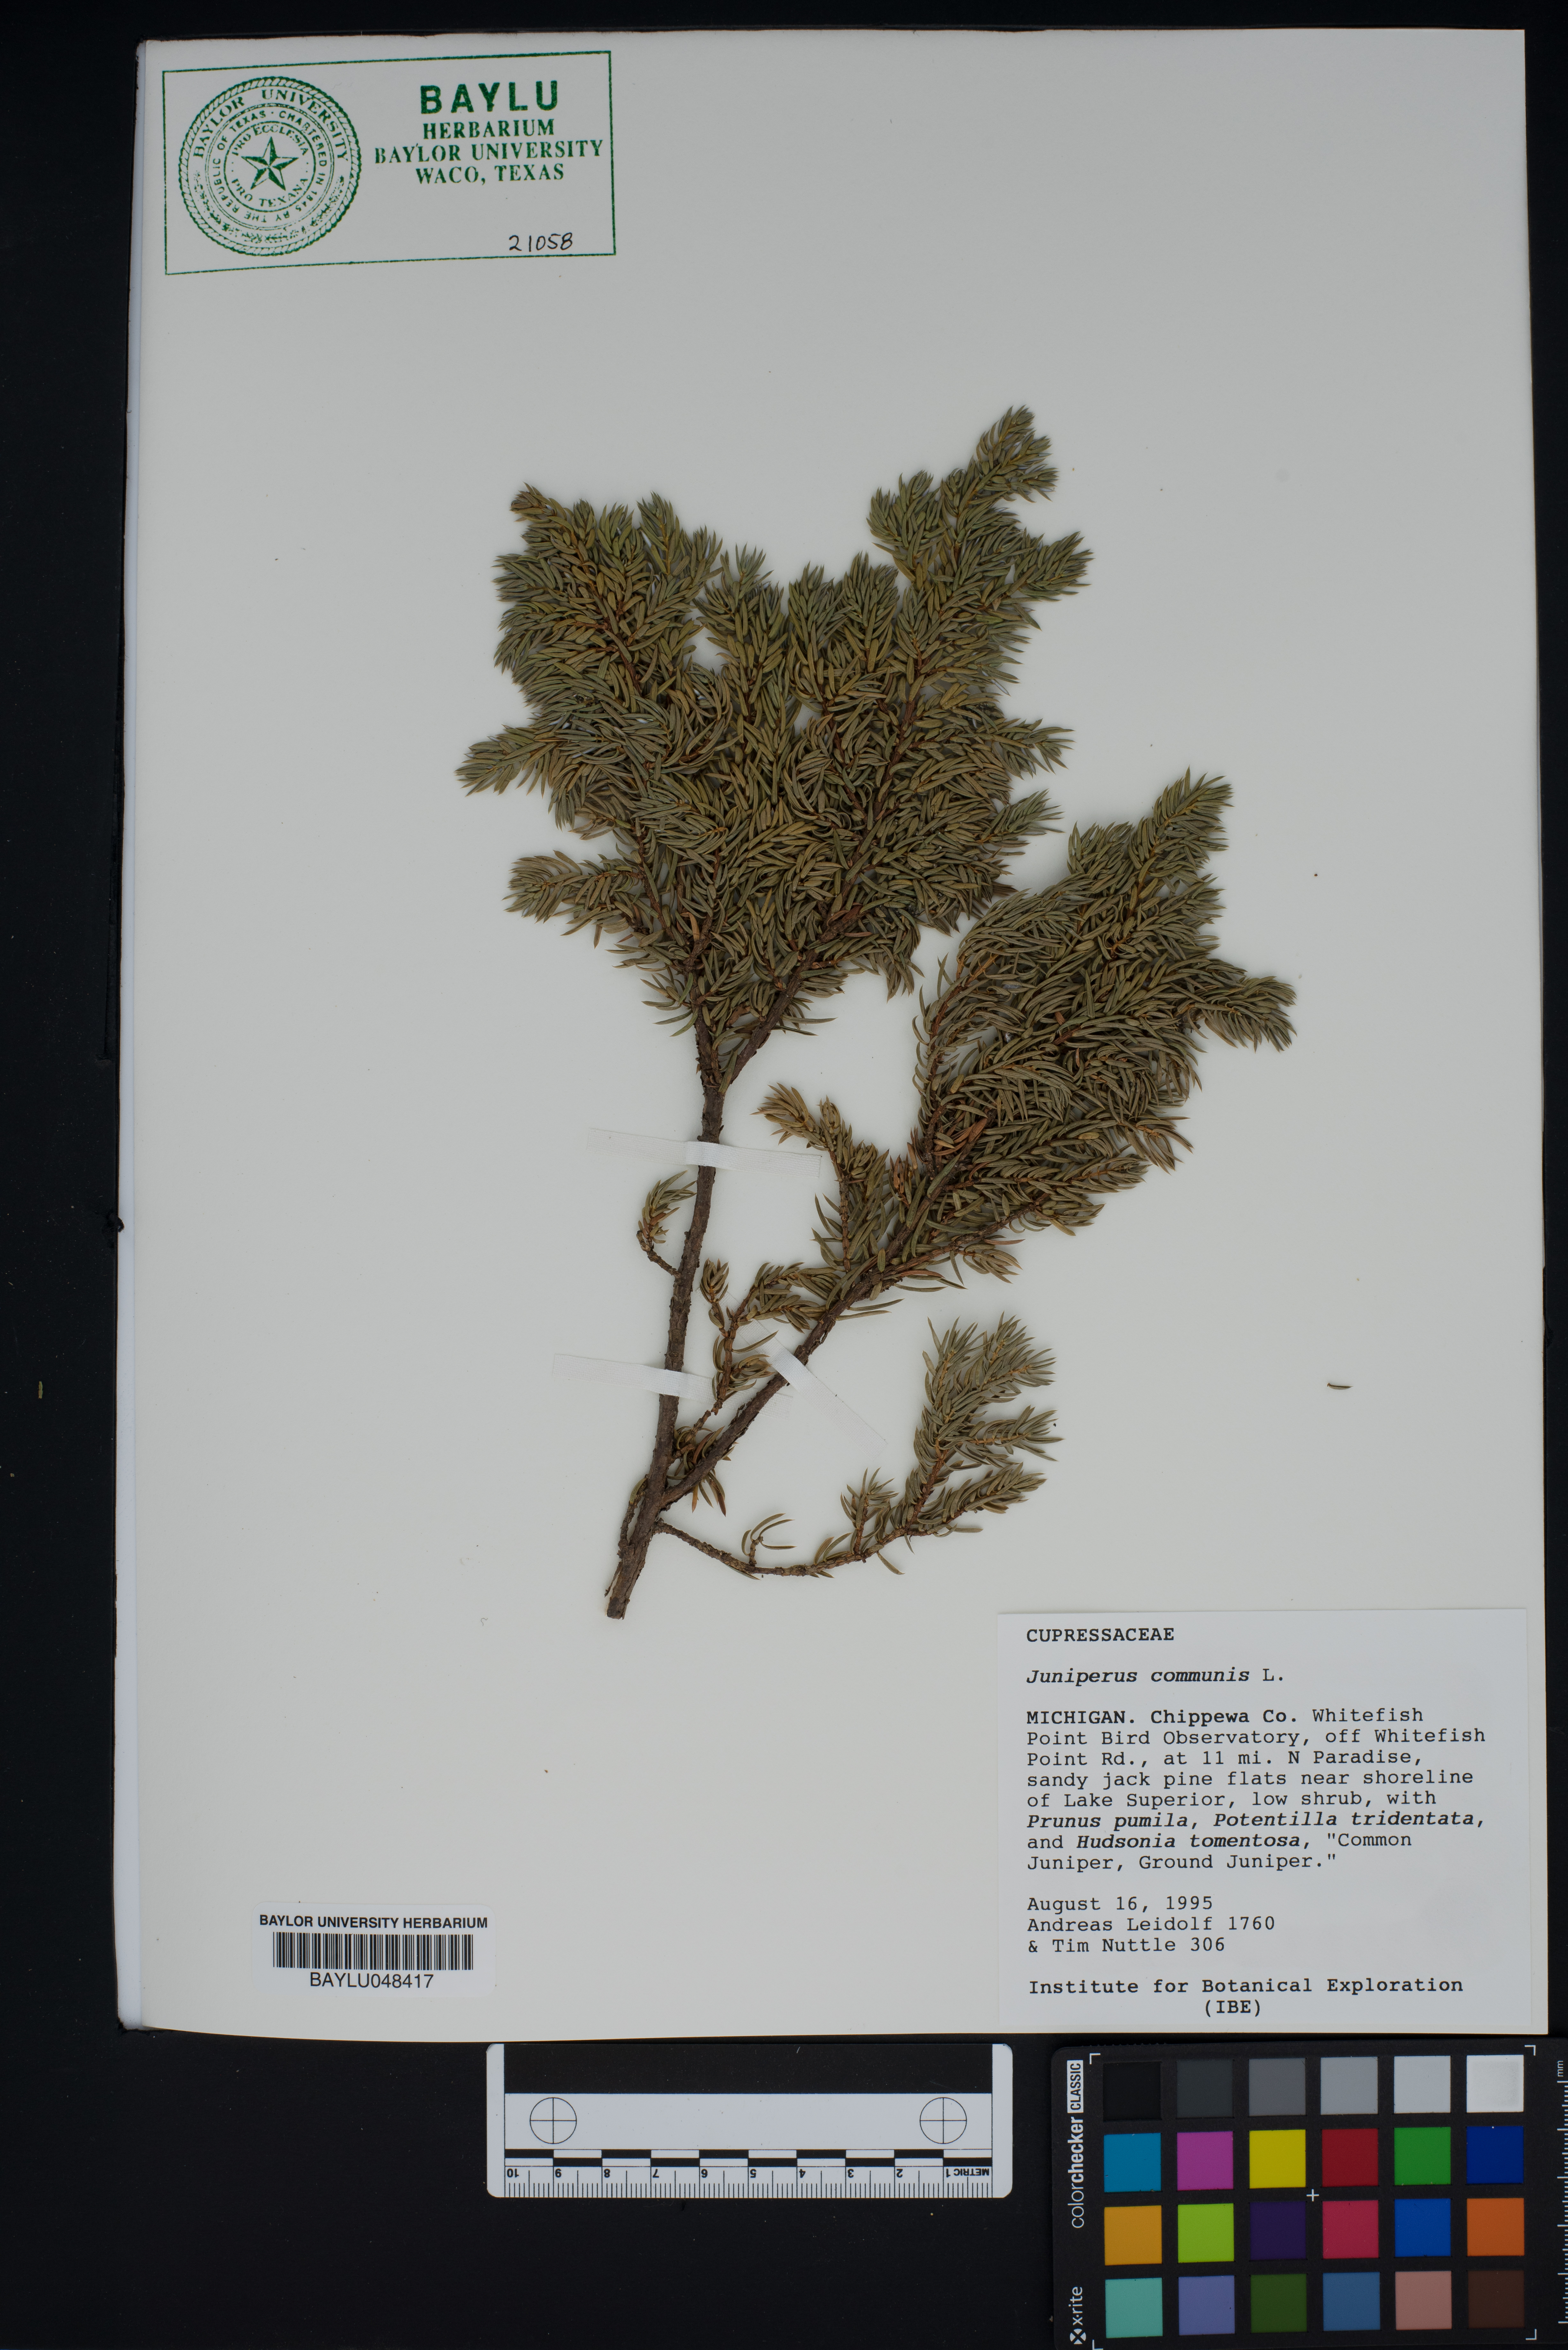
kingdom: Plantae
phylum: Tracheophyta
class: Pinopsida
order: Pinales
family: Cupressaceae
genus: Juniperus
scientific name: Juniperus communis
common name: Common juniper
